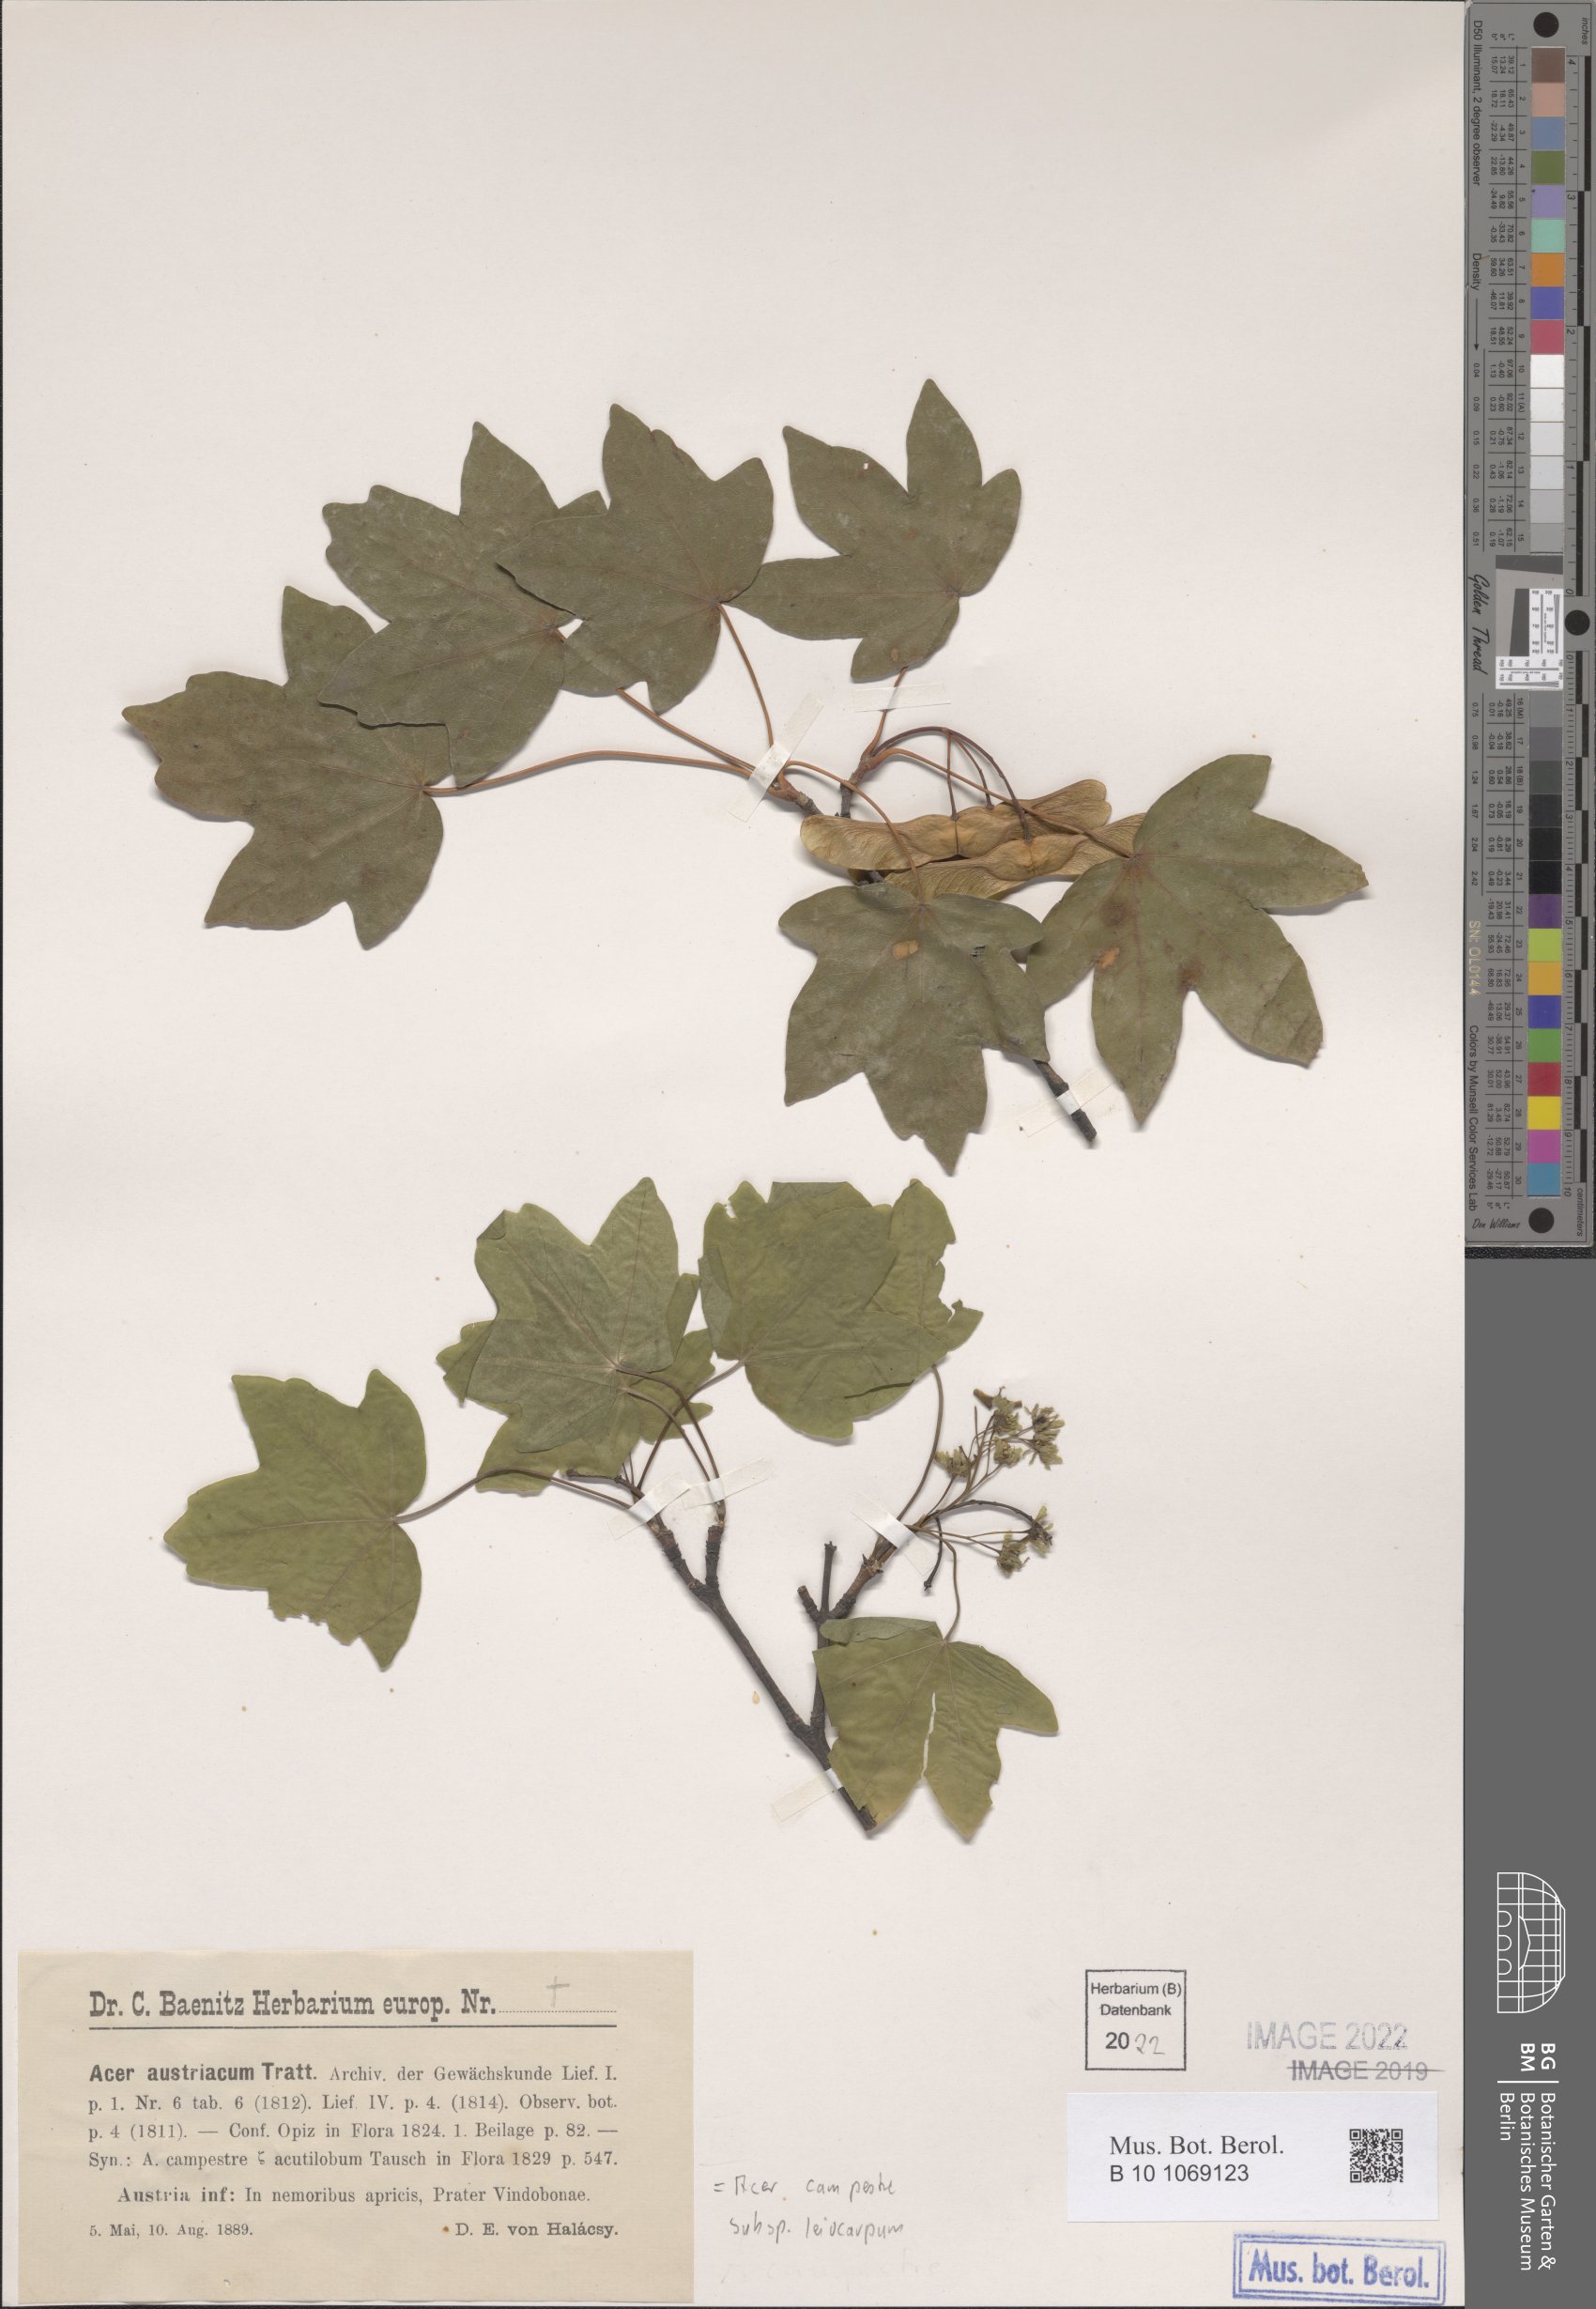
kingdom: Plantae
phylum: Tracheophyta
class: Magnoliopsida
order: Sapindales
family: Sapindaceae
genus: Acer
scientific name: Acer campestre
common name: Field maple
